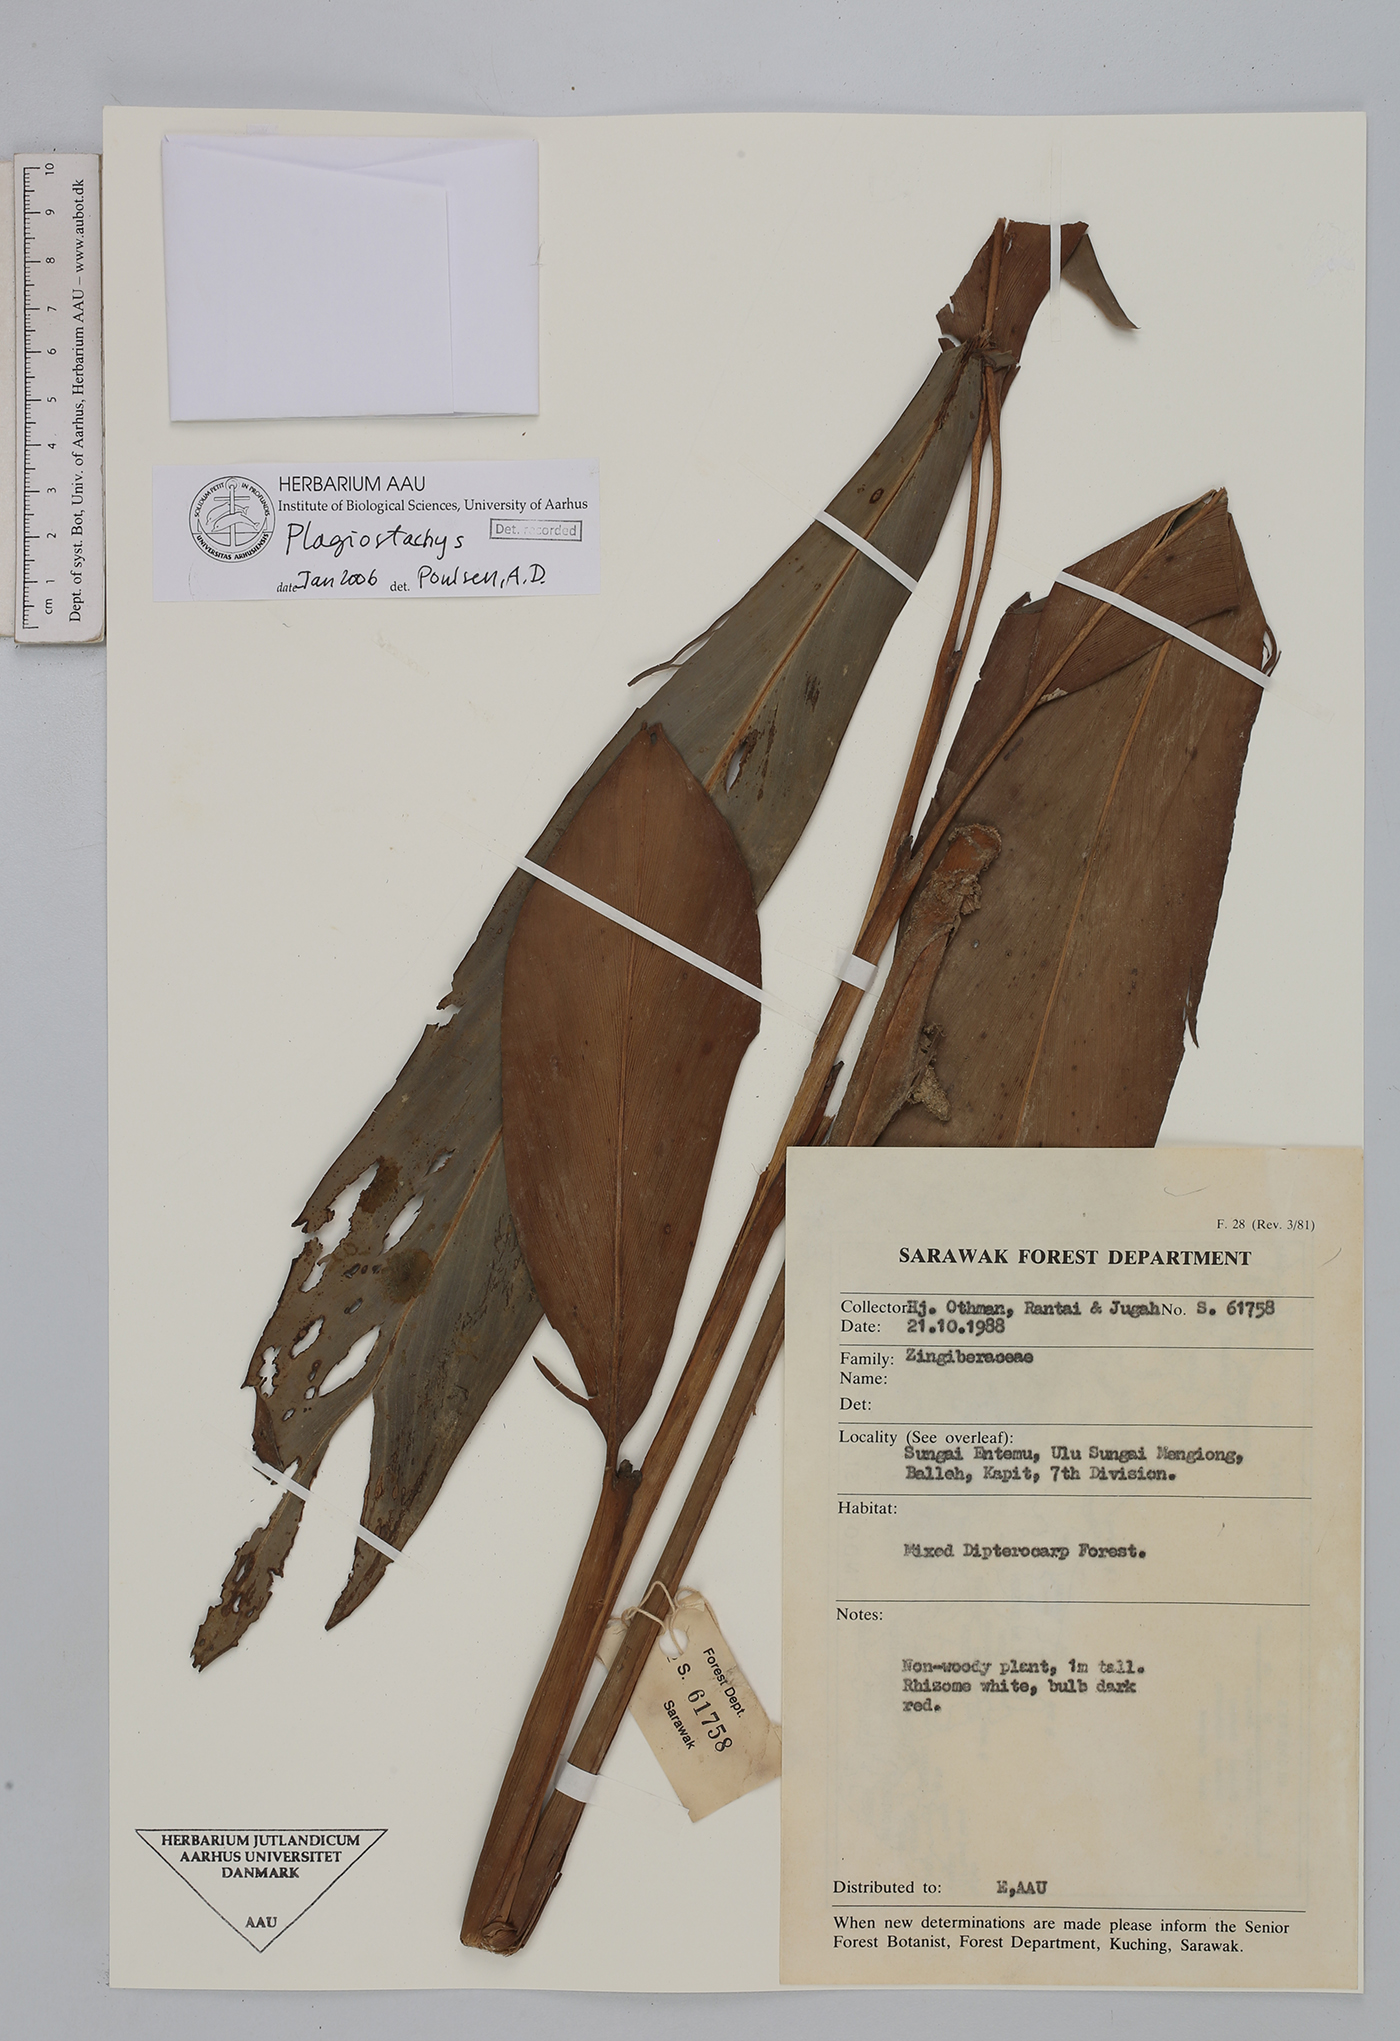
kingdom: Plantae
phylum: Tracheophyta
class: Liliopsida
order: Zingiberales
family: Zingiberaceae
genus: Plagiostachys
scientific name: Plagiostachys
